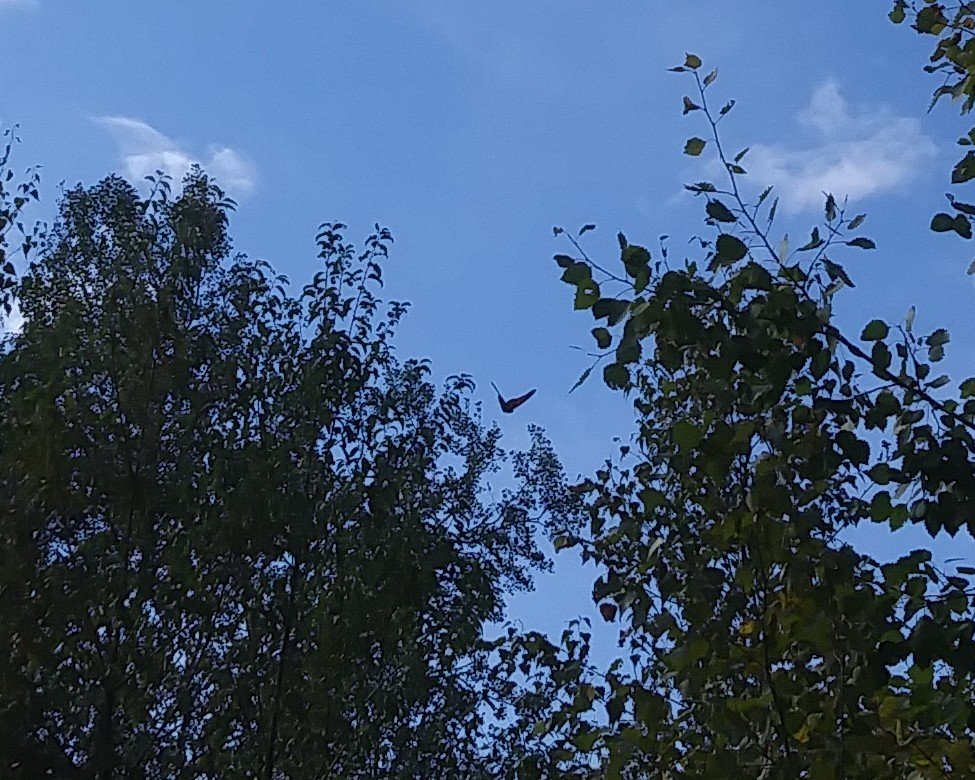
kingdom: Animalia
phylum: Arthropoda
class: Insecta
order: Lepidoptera
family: Nymphalidae
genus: Danaus
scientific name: Danaus plexippus
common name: Monarch
